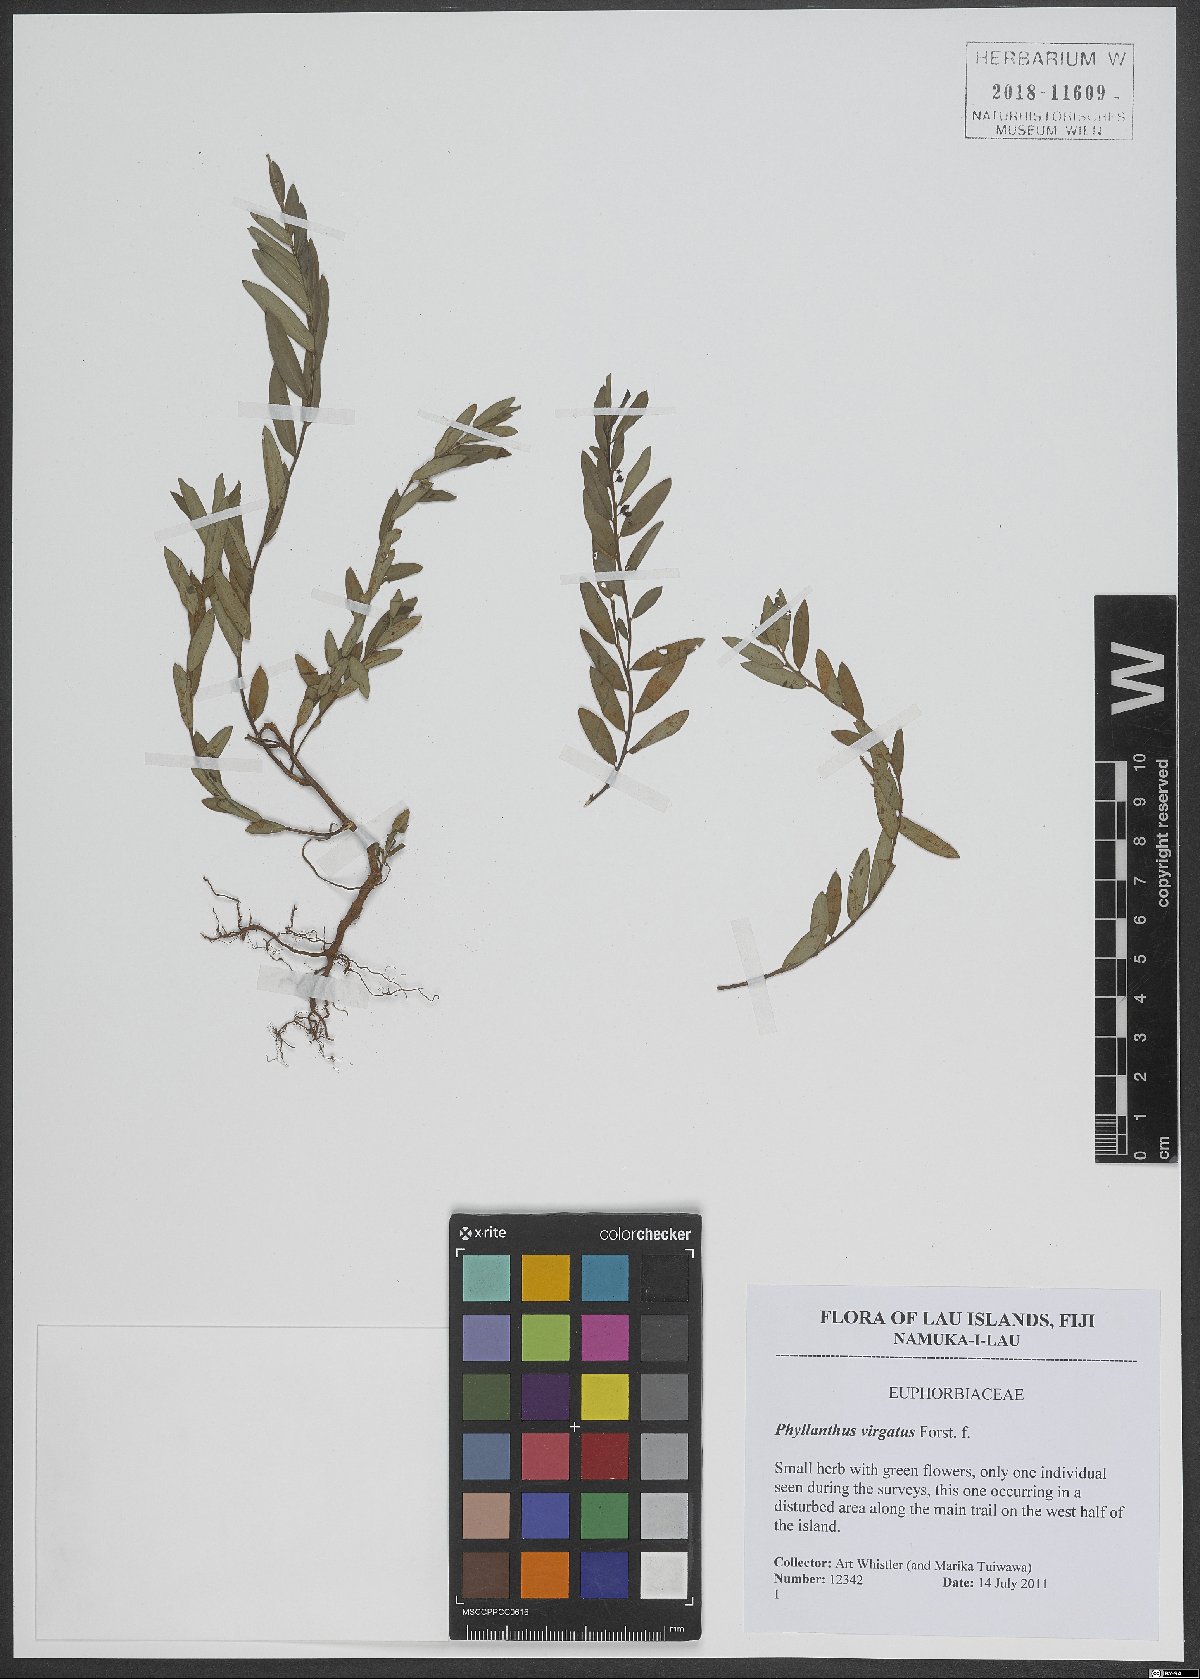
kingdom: Plantae
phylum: Tracheophyta
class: Magnoliopsida
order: Malpighiales
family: Phyllanthaceae
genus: Phyllanthus
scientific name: Phyllanthus virgatus
